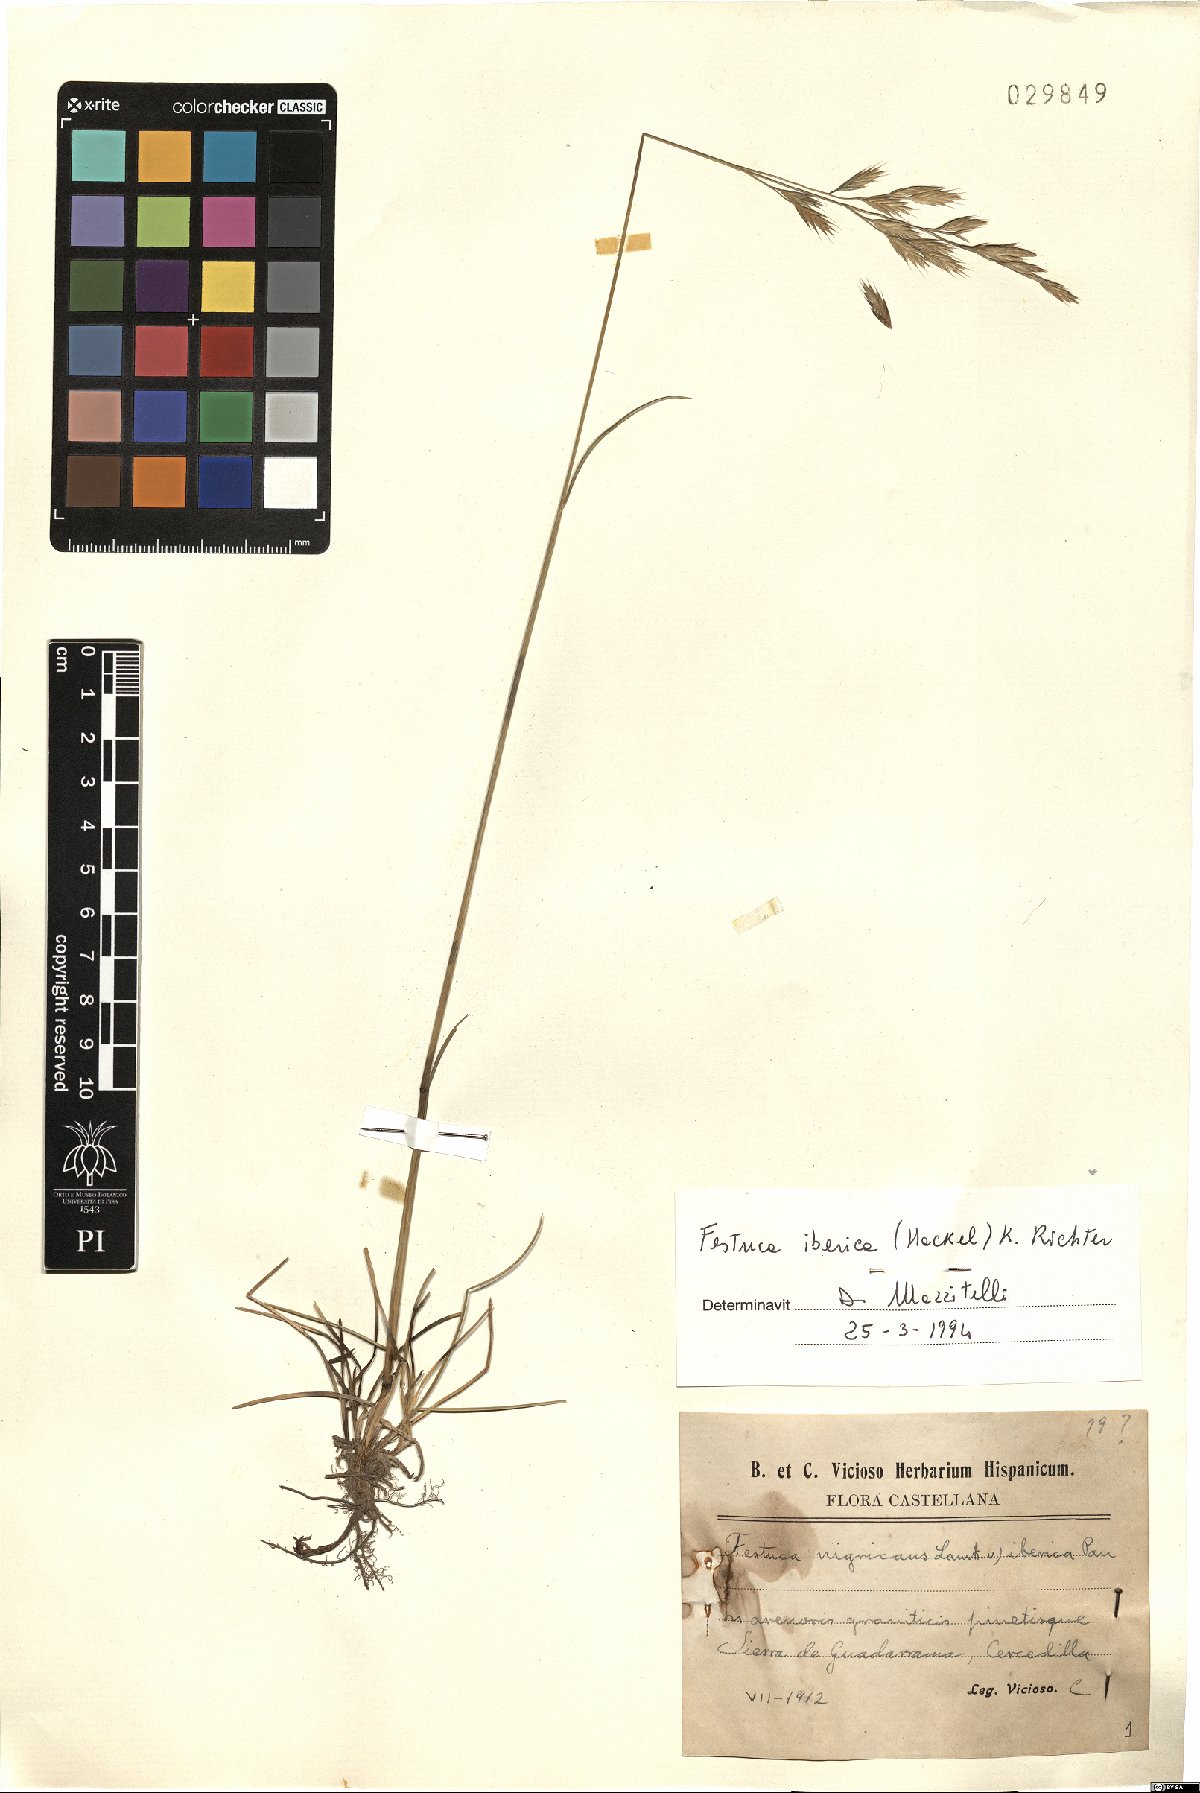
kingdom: Plantae
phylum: Tracheophyta
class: Liliopsida
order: Poales
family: Poaceae
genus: Festuca
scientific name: Festuca iberica
